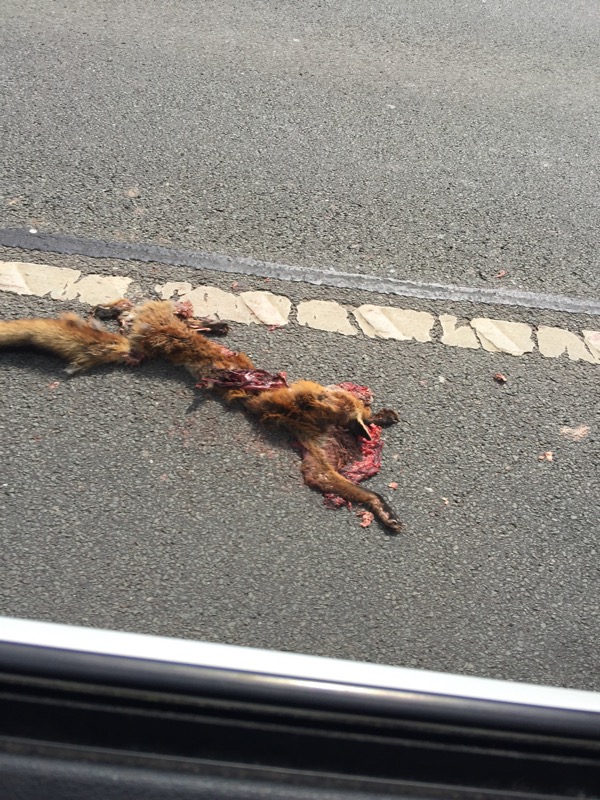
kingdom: Animalia
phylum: Chordata
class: Mammalia
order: Carnivora
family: Canidae
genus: Vulpes
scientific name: Vulpes vulpes
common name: Red fox
